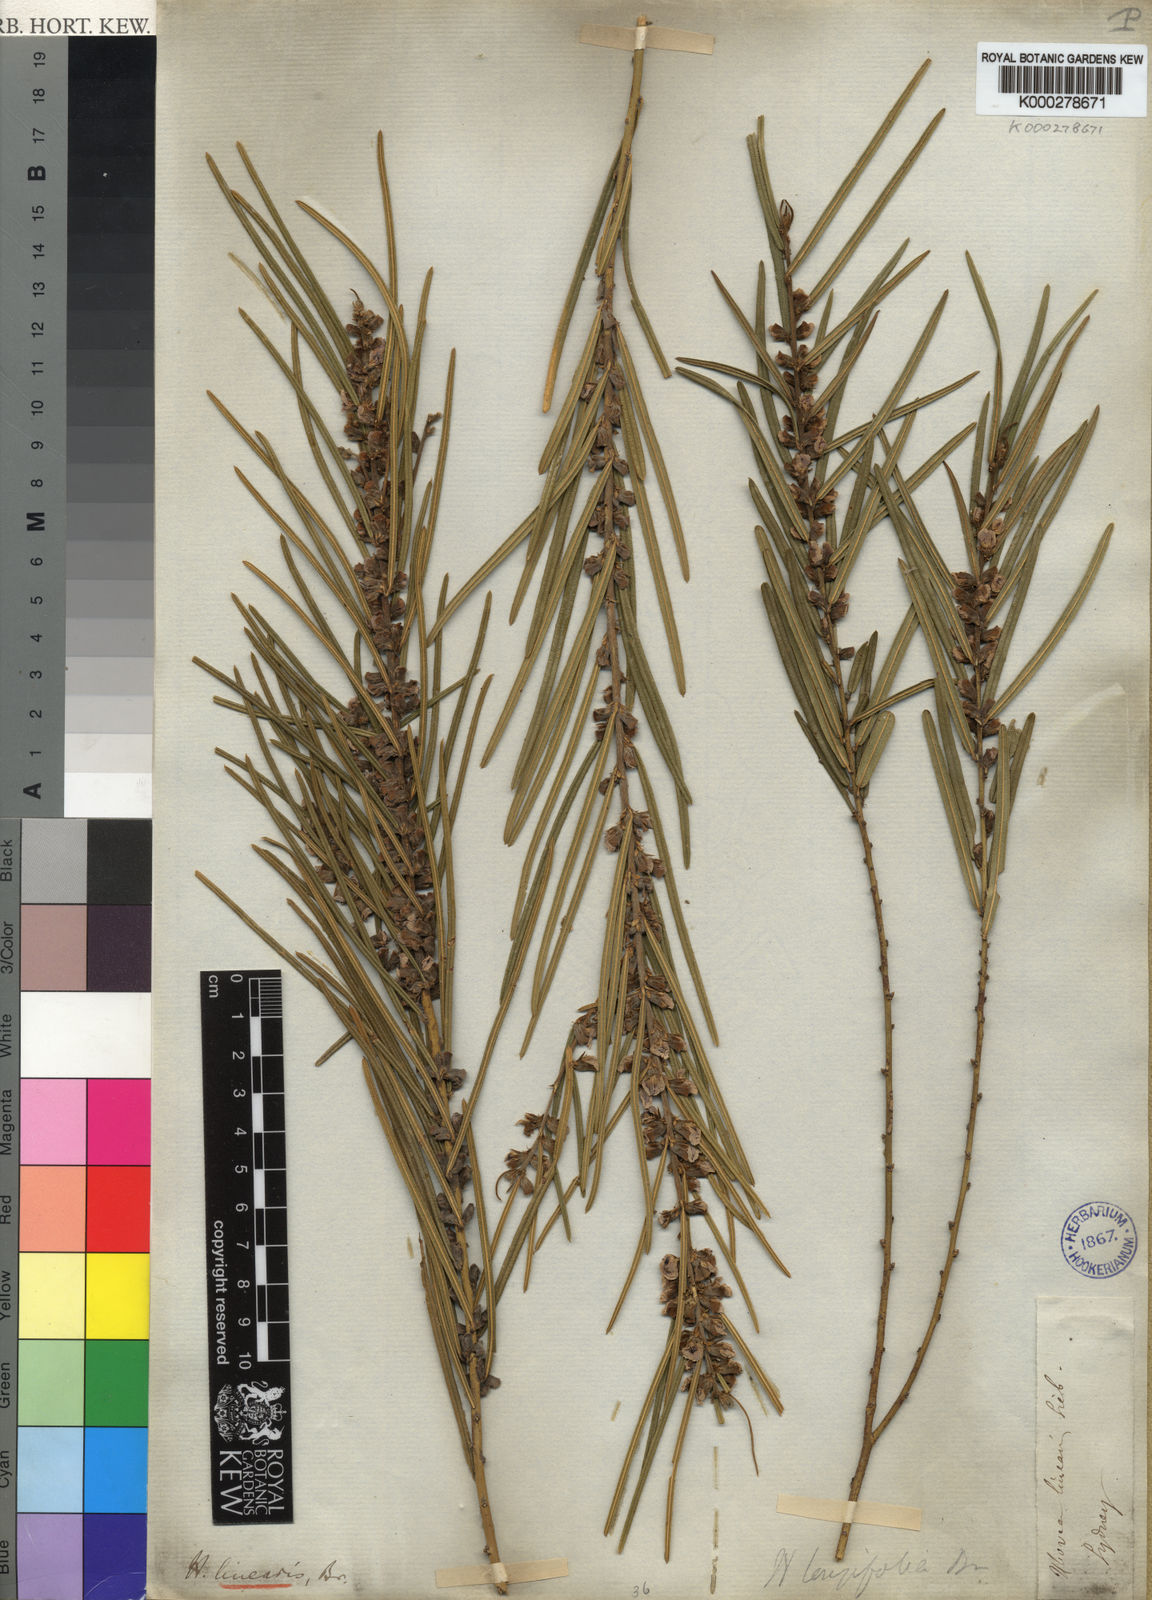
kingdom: Plantae
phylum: Tracheophyta
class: Magnoliopsida
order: Fabales
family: Fabaceae
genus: Hovea
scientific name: Hovea linearis
